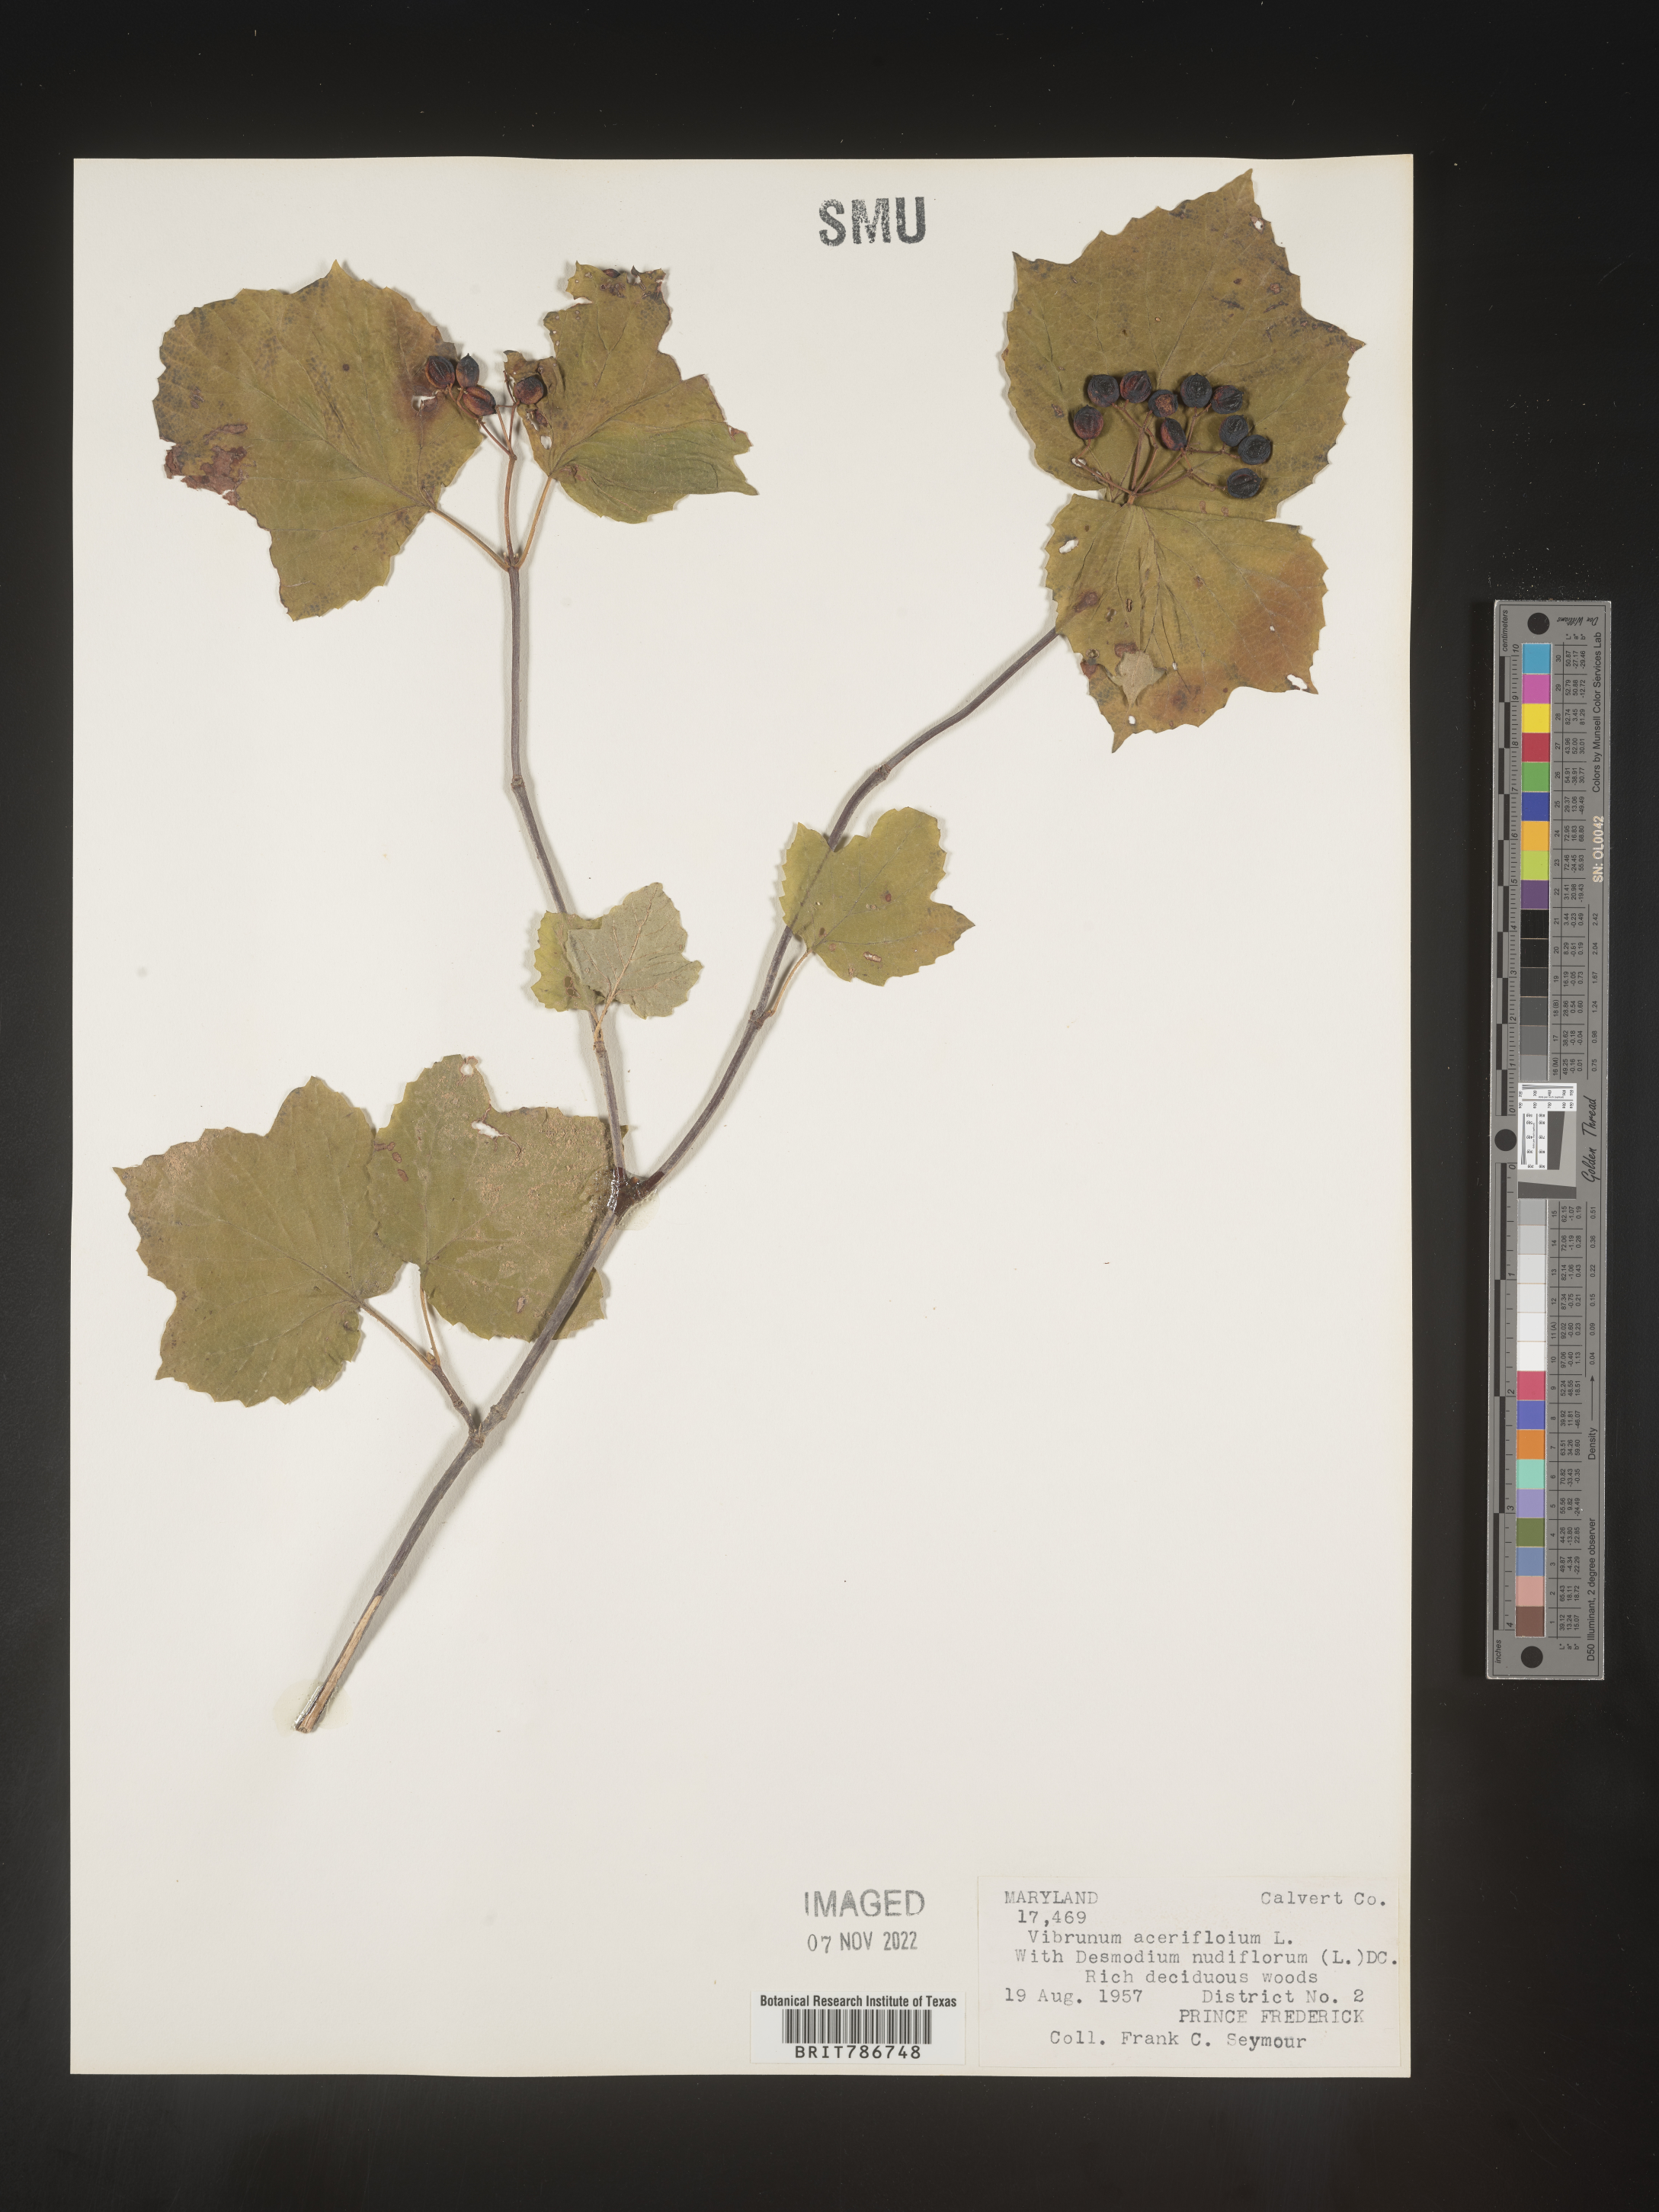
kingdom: Plantae
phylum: Tracheophyta
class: Magnoliopsida
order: Dipsacales
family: Viburnaceae
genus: Viburnum
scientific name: Viburnum acerifolium
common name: Dockmackie
